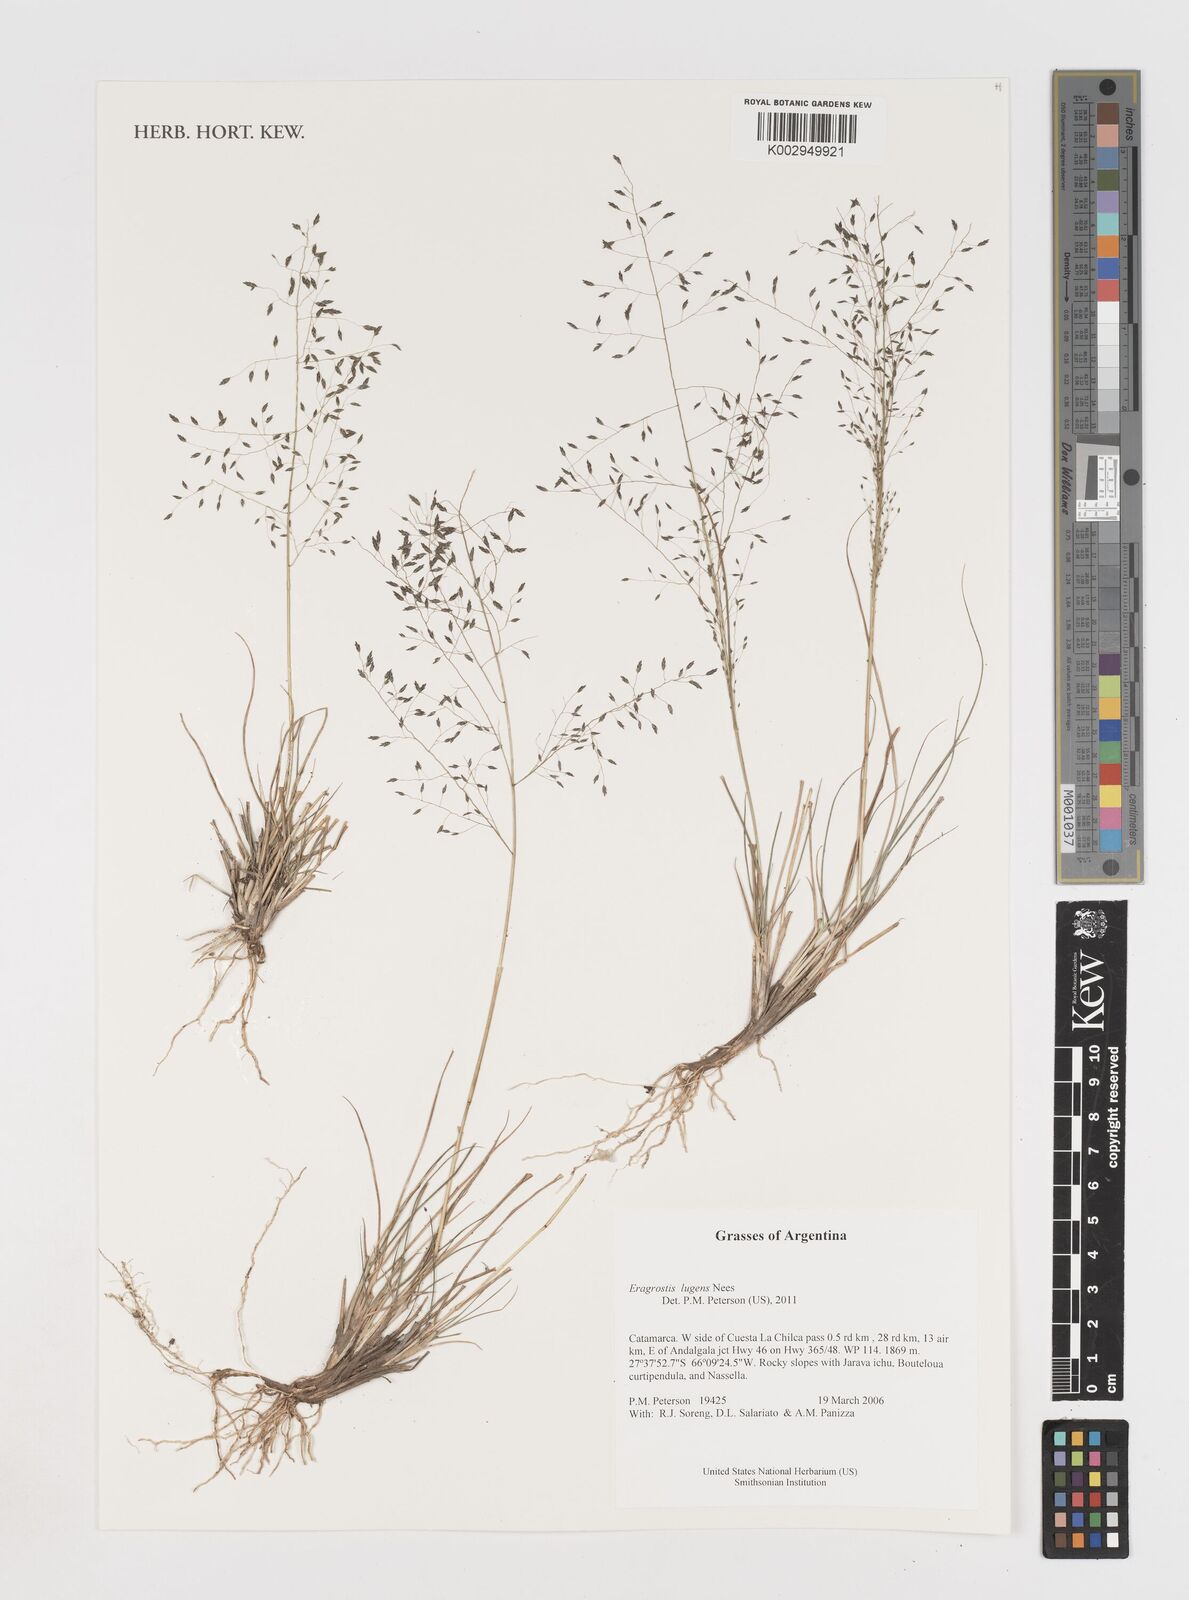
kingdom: Plantae
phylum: Tracheophyta
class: Liliopsida
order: Poales
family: Poaceae
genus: Eragrostis
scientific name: Eragrostis lugens
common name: Mourning love grass
